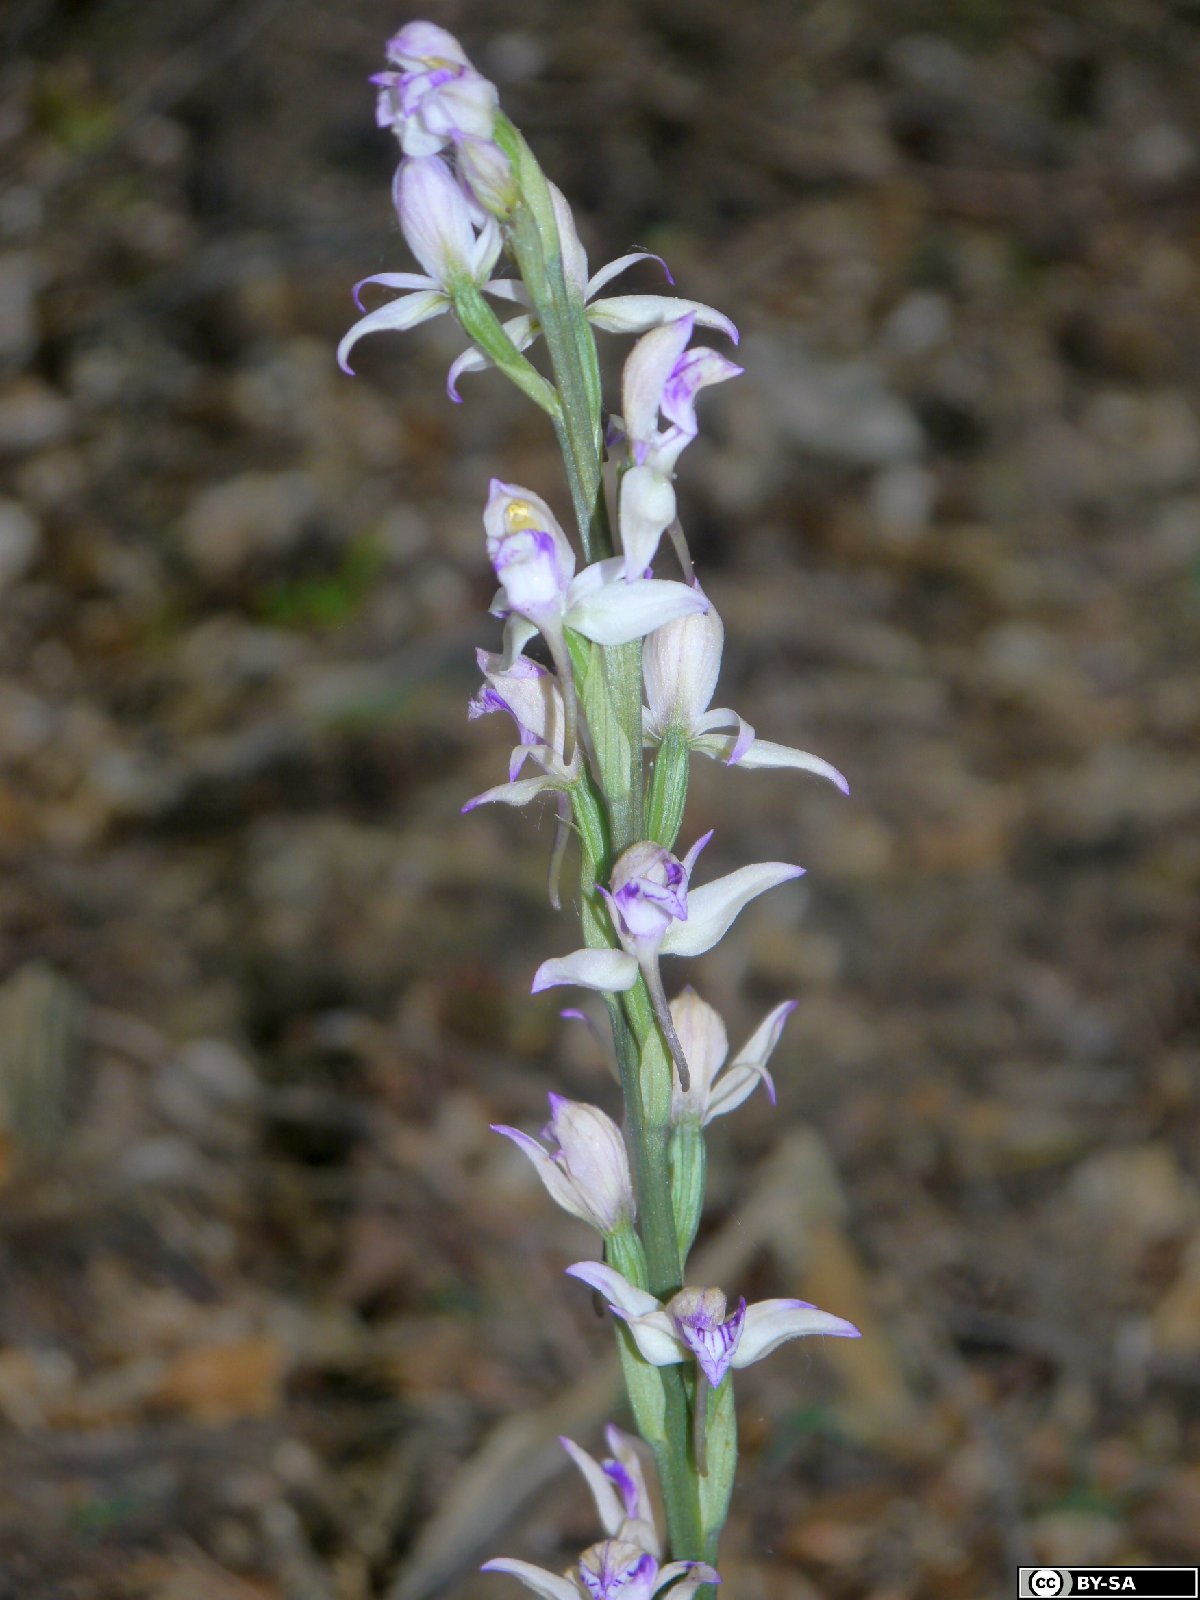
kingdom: Plantae
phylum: Tracheophyta
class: Liliopsida
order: Asparagales
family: Orchidaceae
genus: Limodorum
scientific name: Limodorum abortivum
